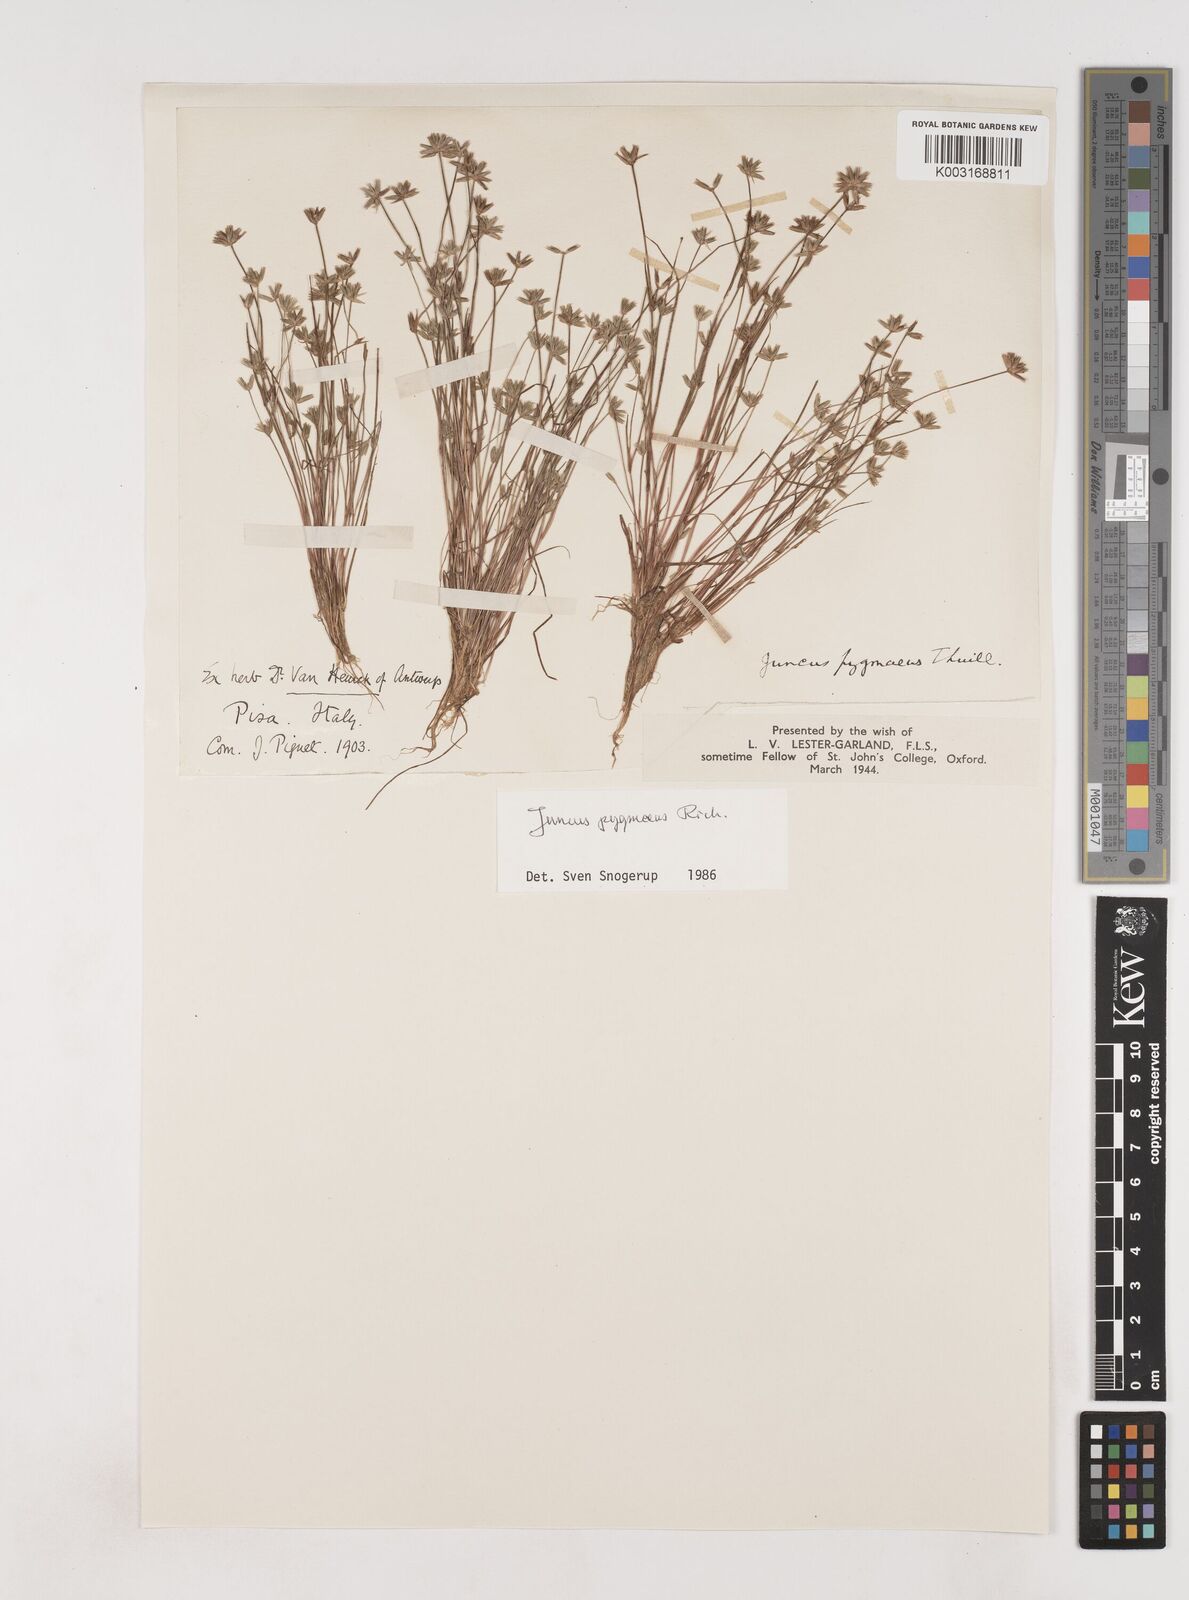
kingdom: Plantae
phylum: Tracheophyta
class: Liliopsida
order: Poales
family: Juncaceae
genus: Juncus
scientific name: Juncus pygmaeus
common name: Pigmy rush
